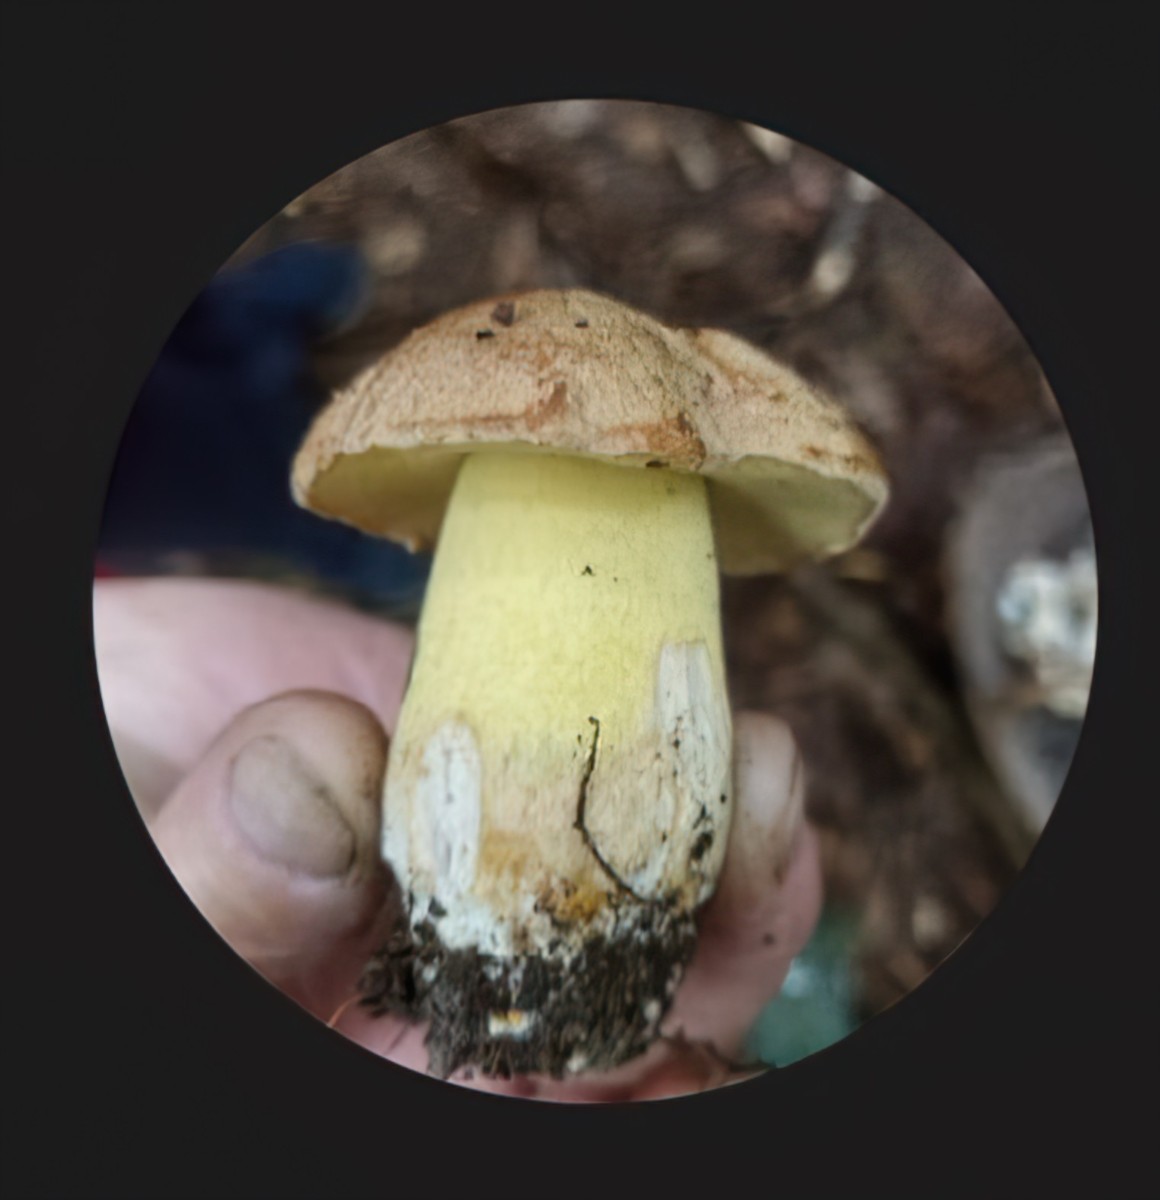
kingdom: Fungi
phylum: Basidiomycota
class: Agaricomycetes
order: Boletales
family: Boletaceae
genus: Butyriboletus
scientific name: Butyriboletus appendiculatus
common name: tenstokket rørhat
